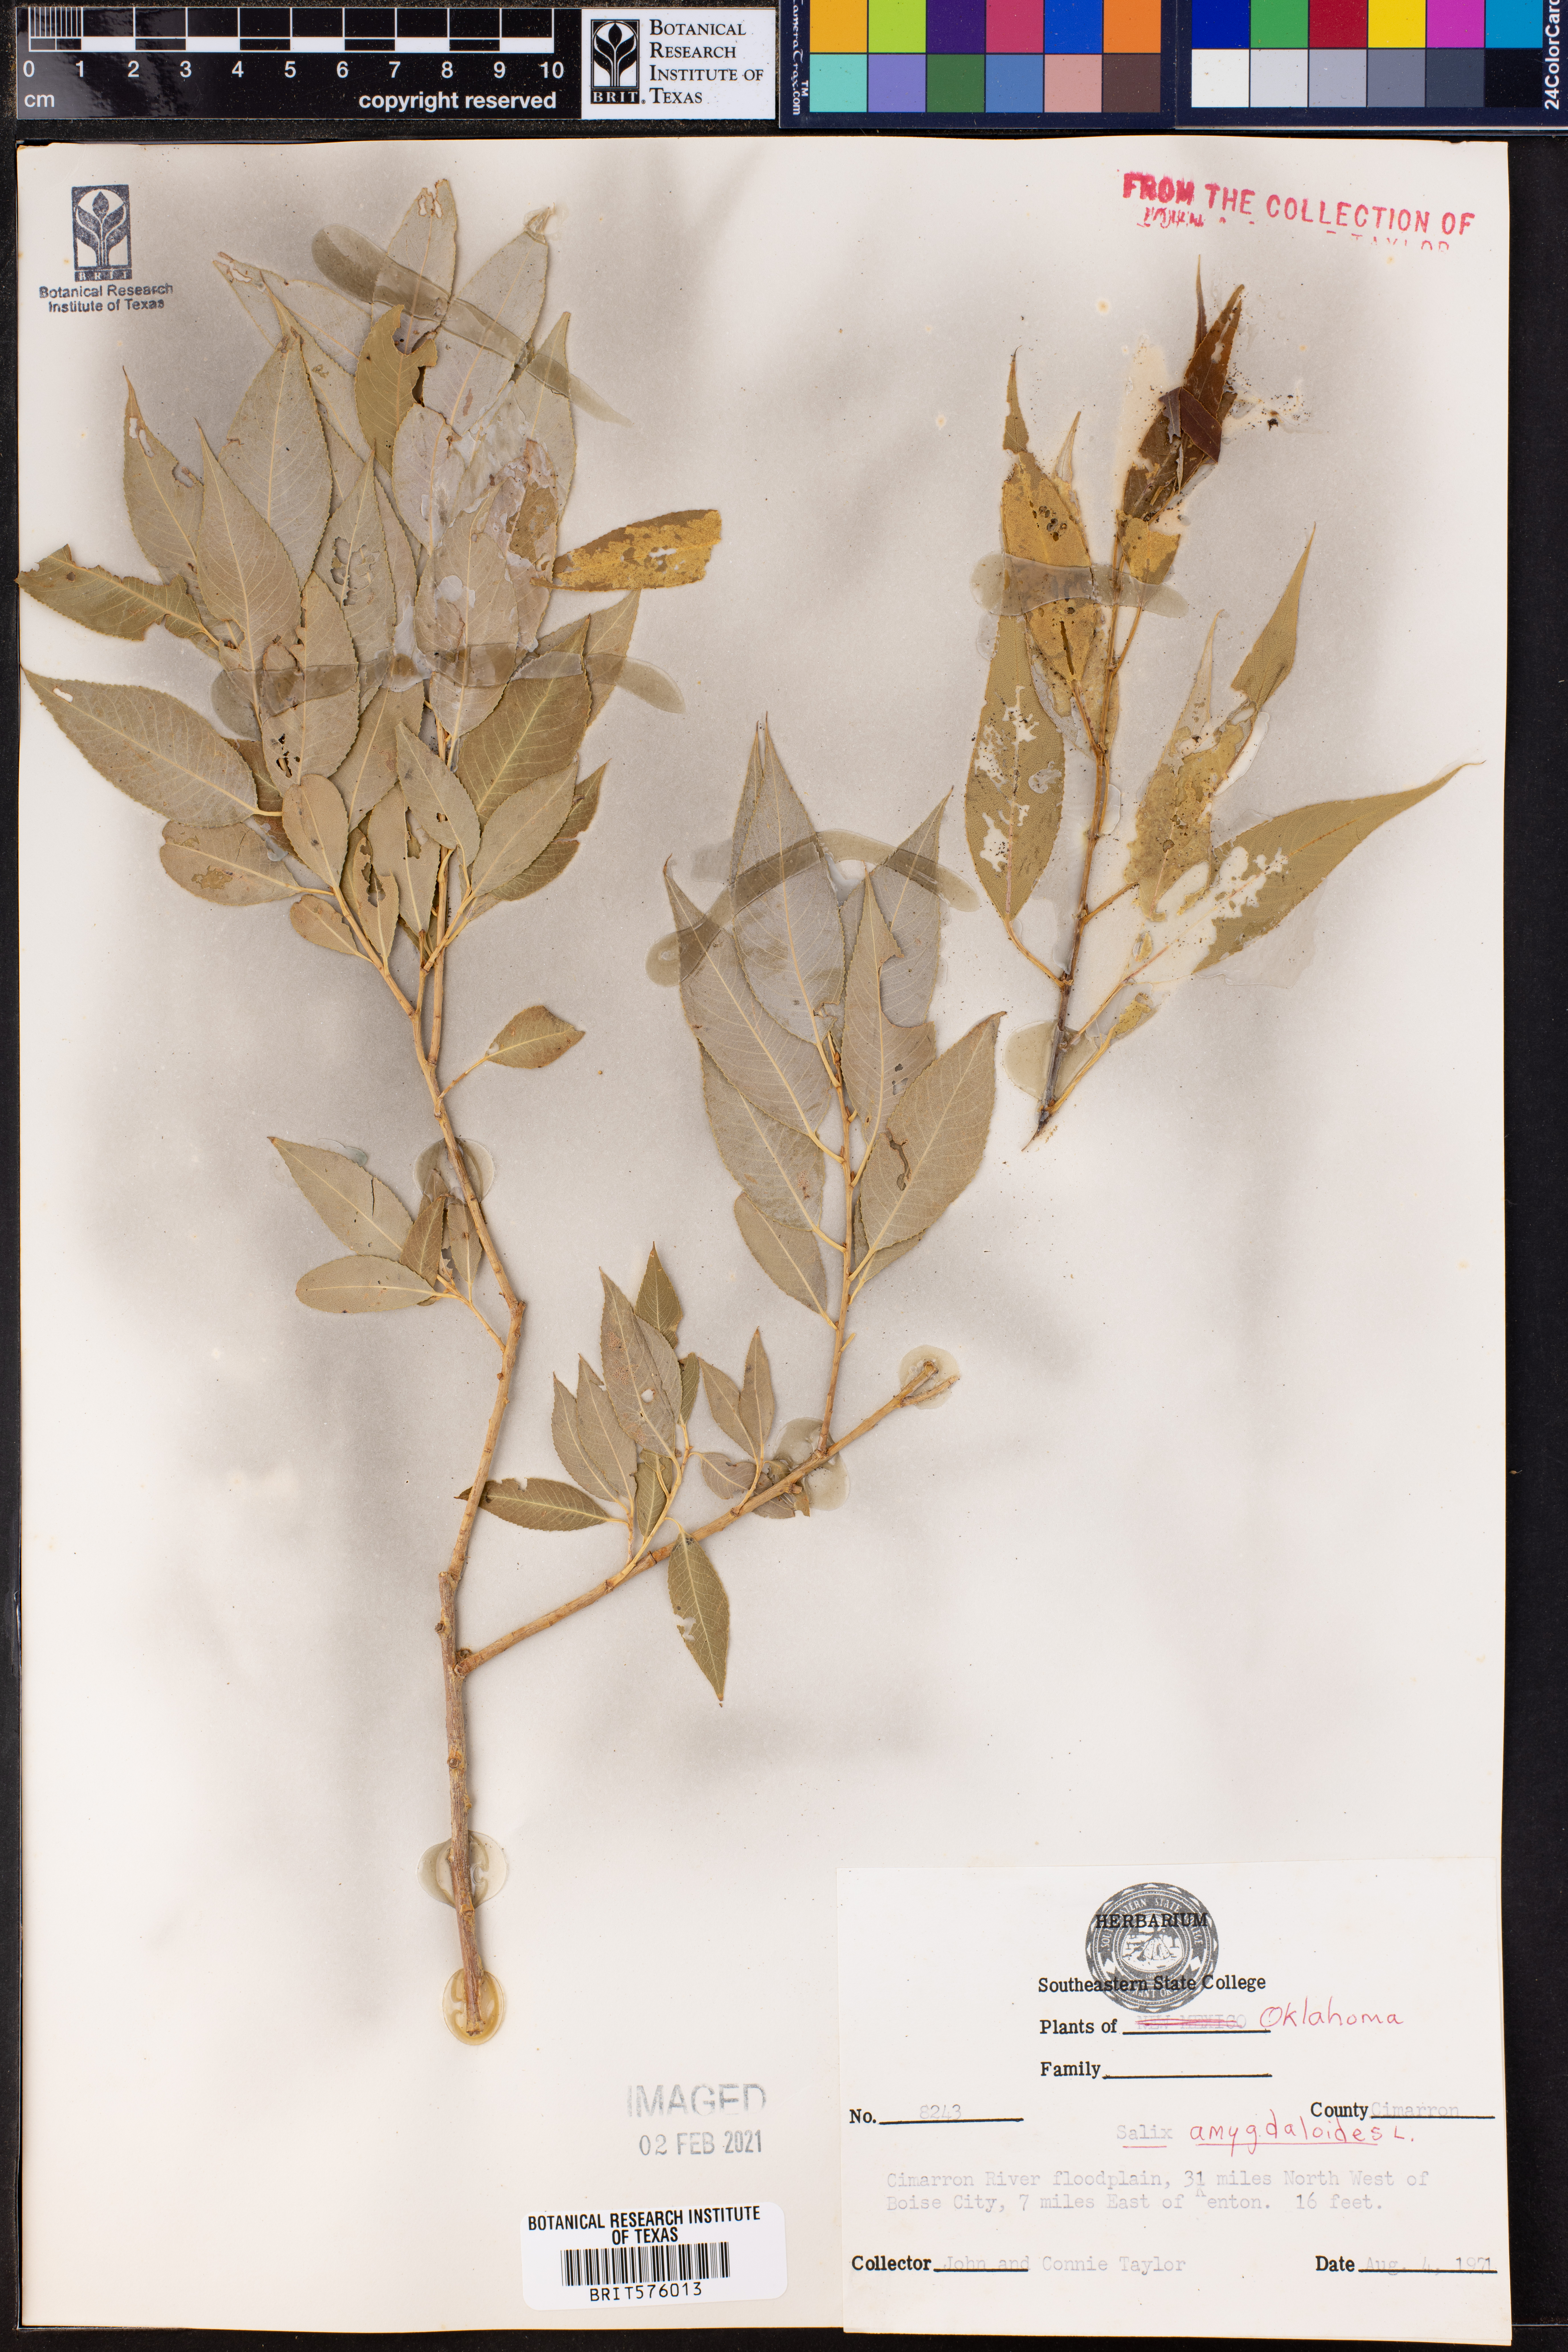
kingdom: Plantae
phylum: Tracheophyta
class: Magnoliopsida
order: Malpighiales
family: Salicaceae
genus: Salix
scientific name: Salix amygdaloides
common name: Peach leaf willow
